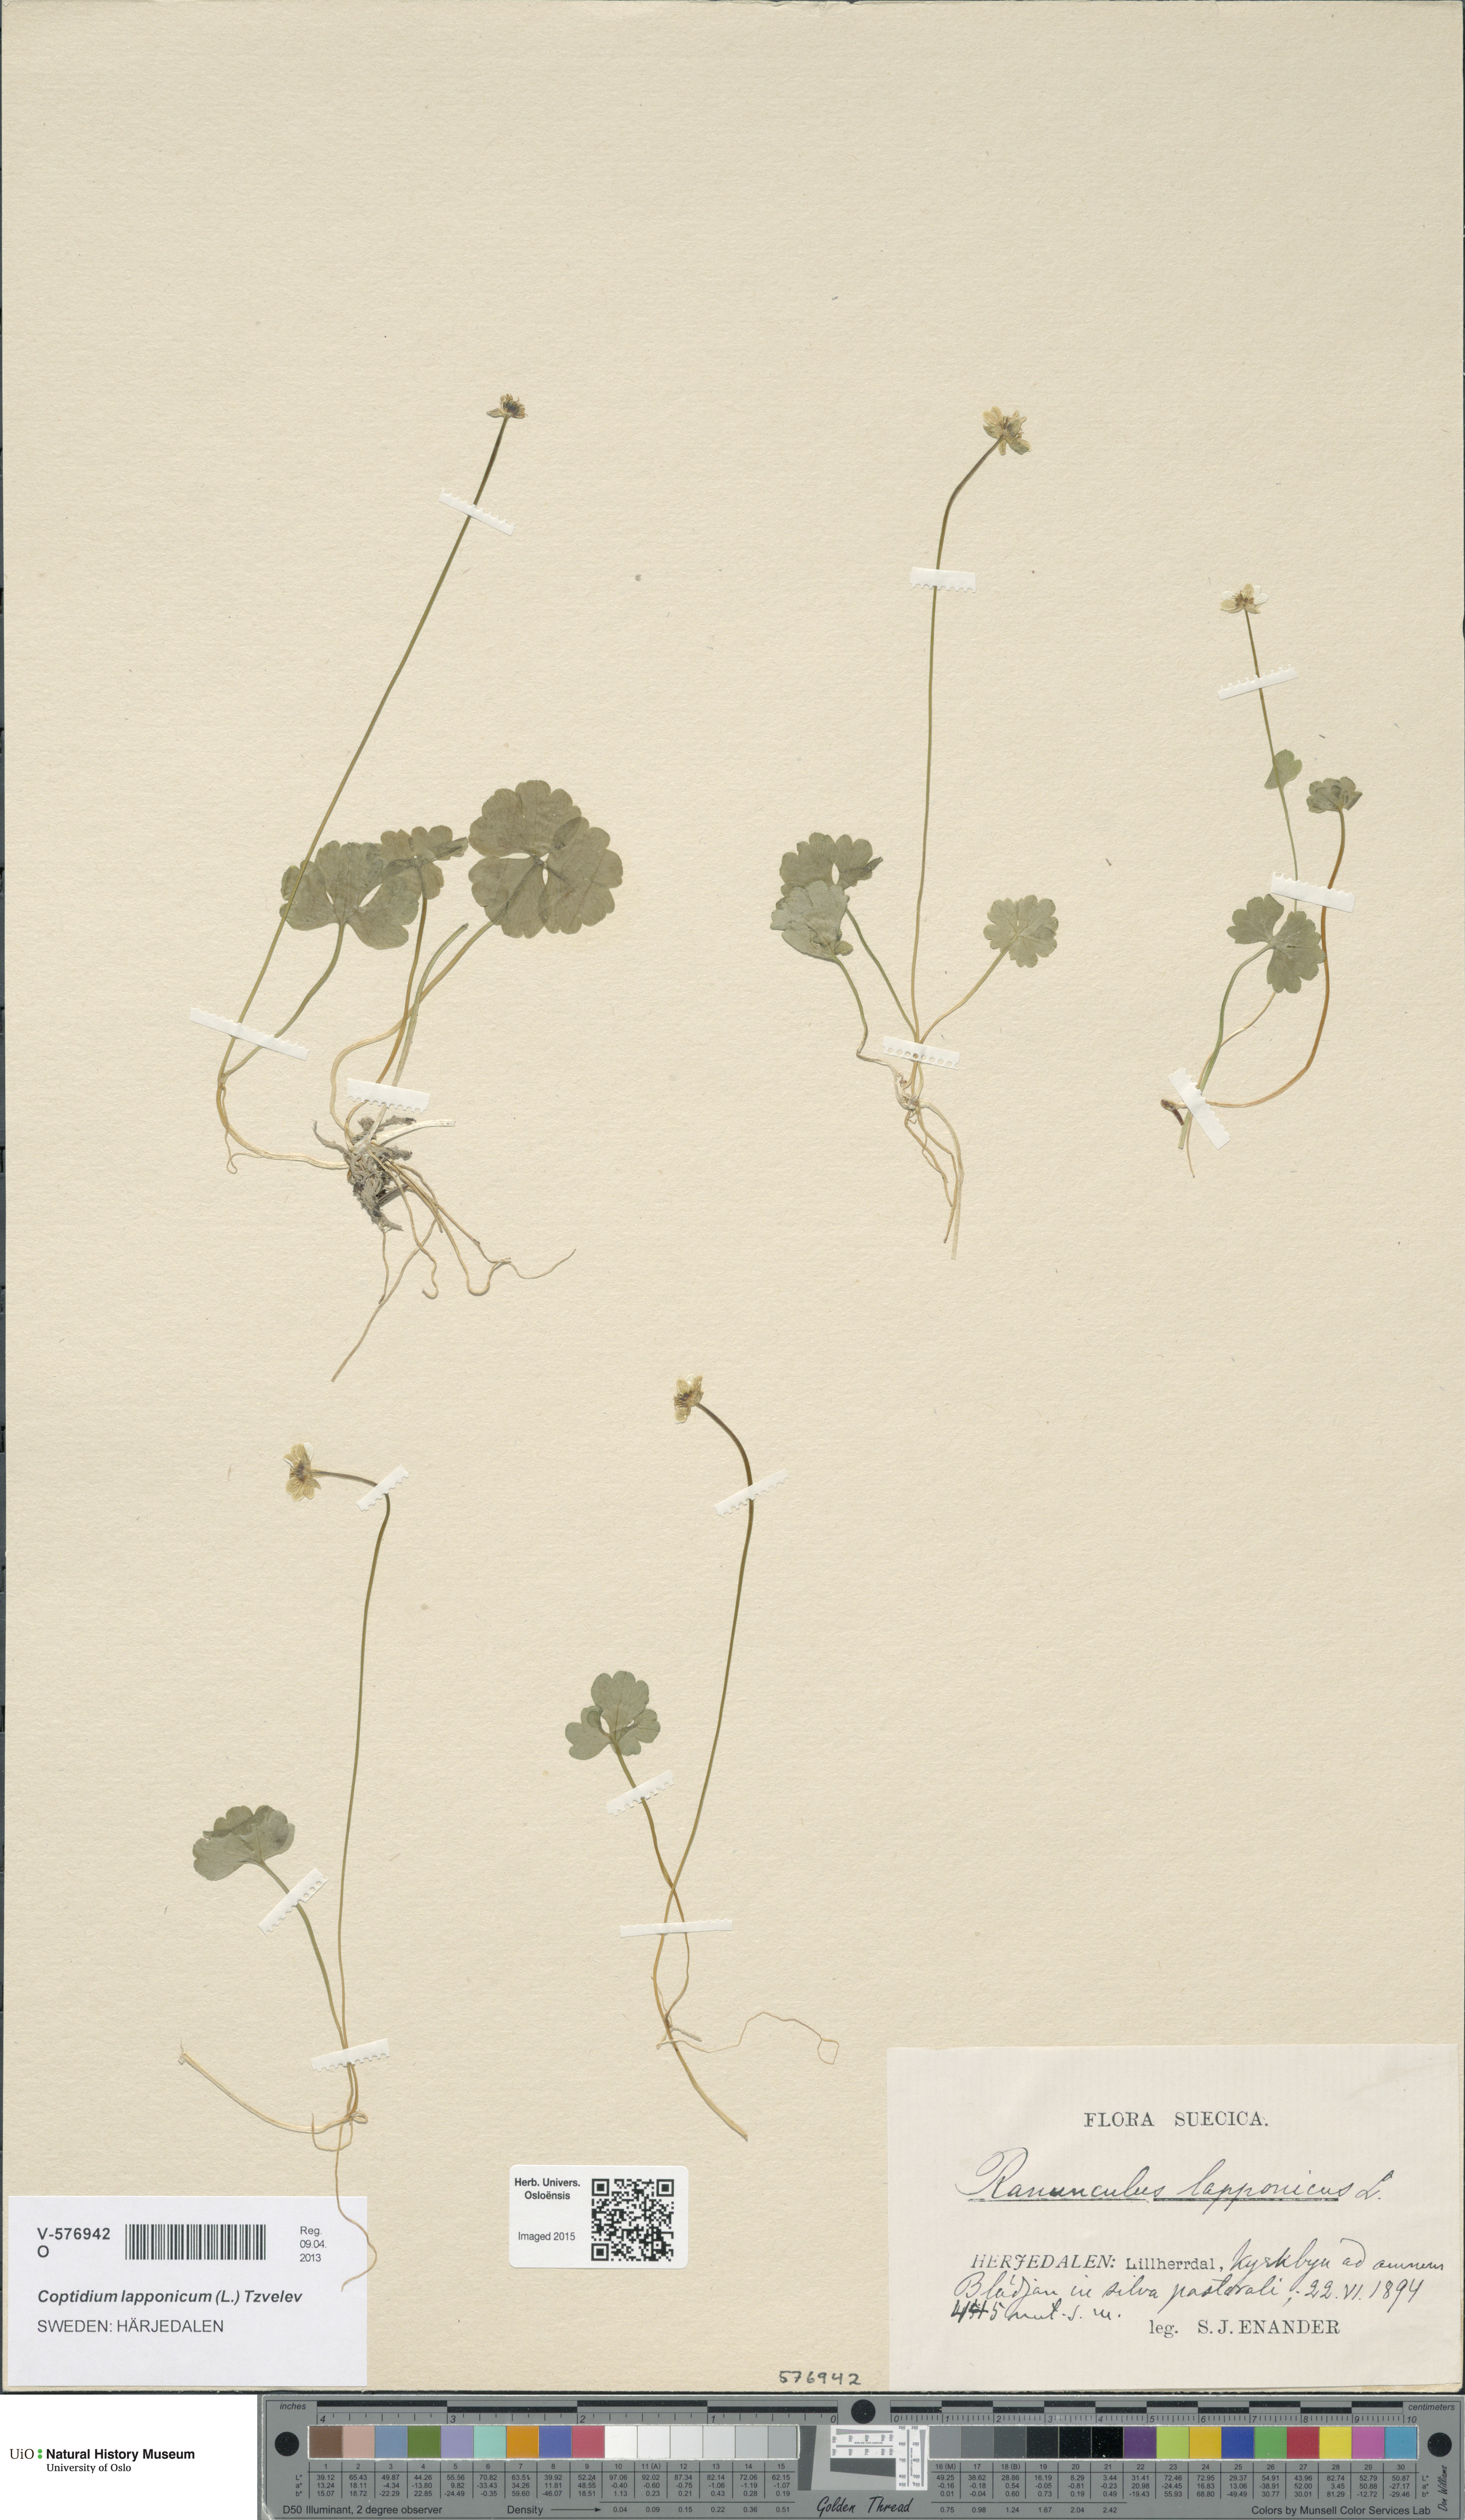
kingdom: Plantae
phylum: Tracheophyta
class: Magnoliopsida
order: Ranunculales
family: Ranunculaceae
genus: Coptidium
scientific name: Coptidium lapponicum
